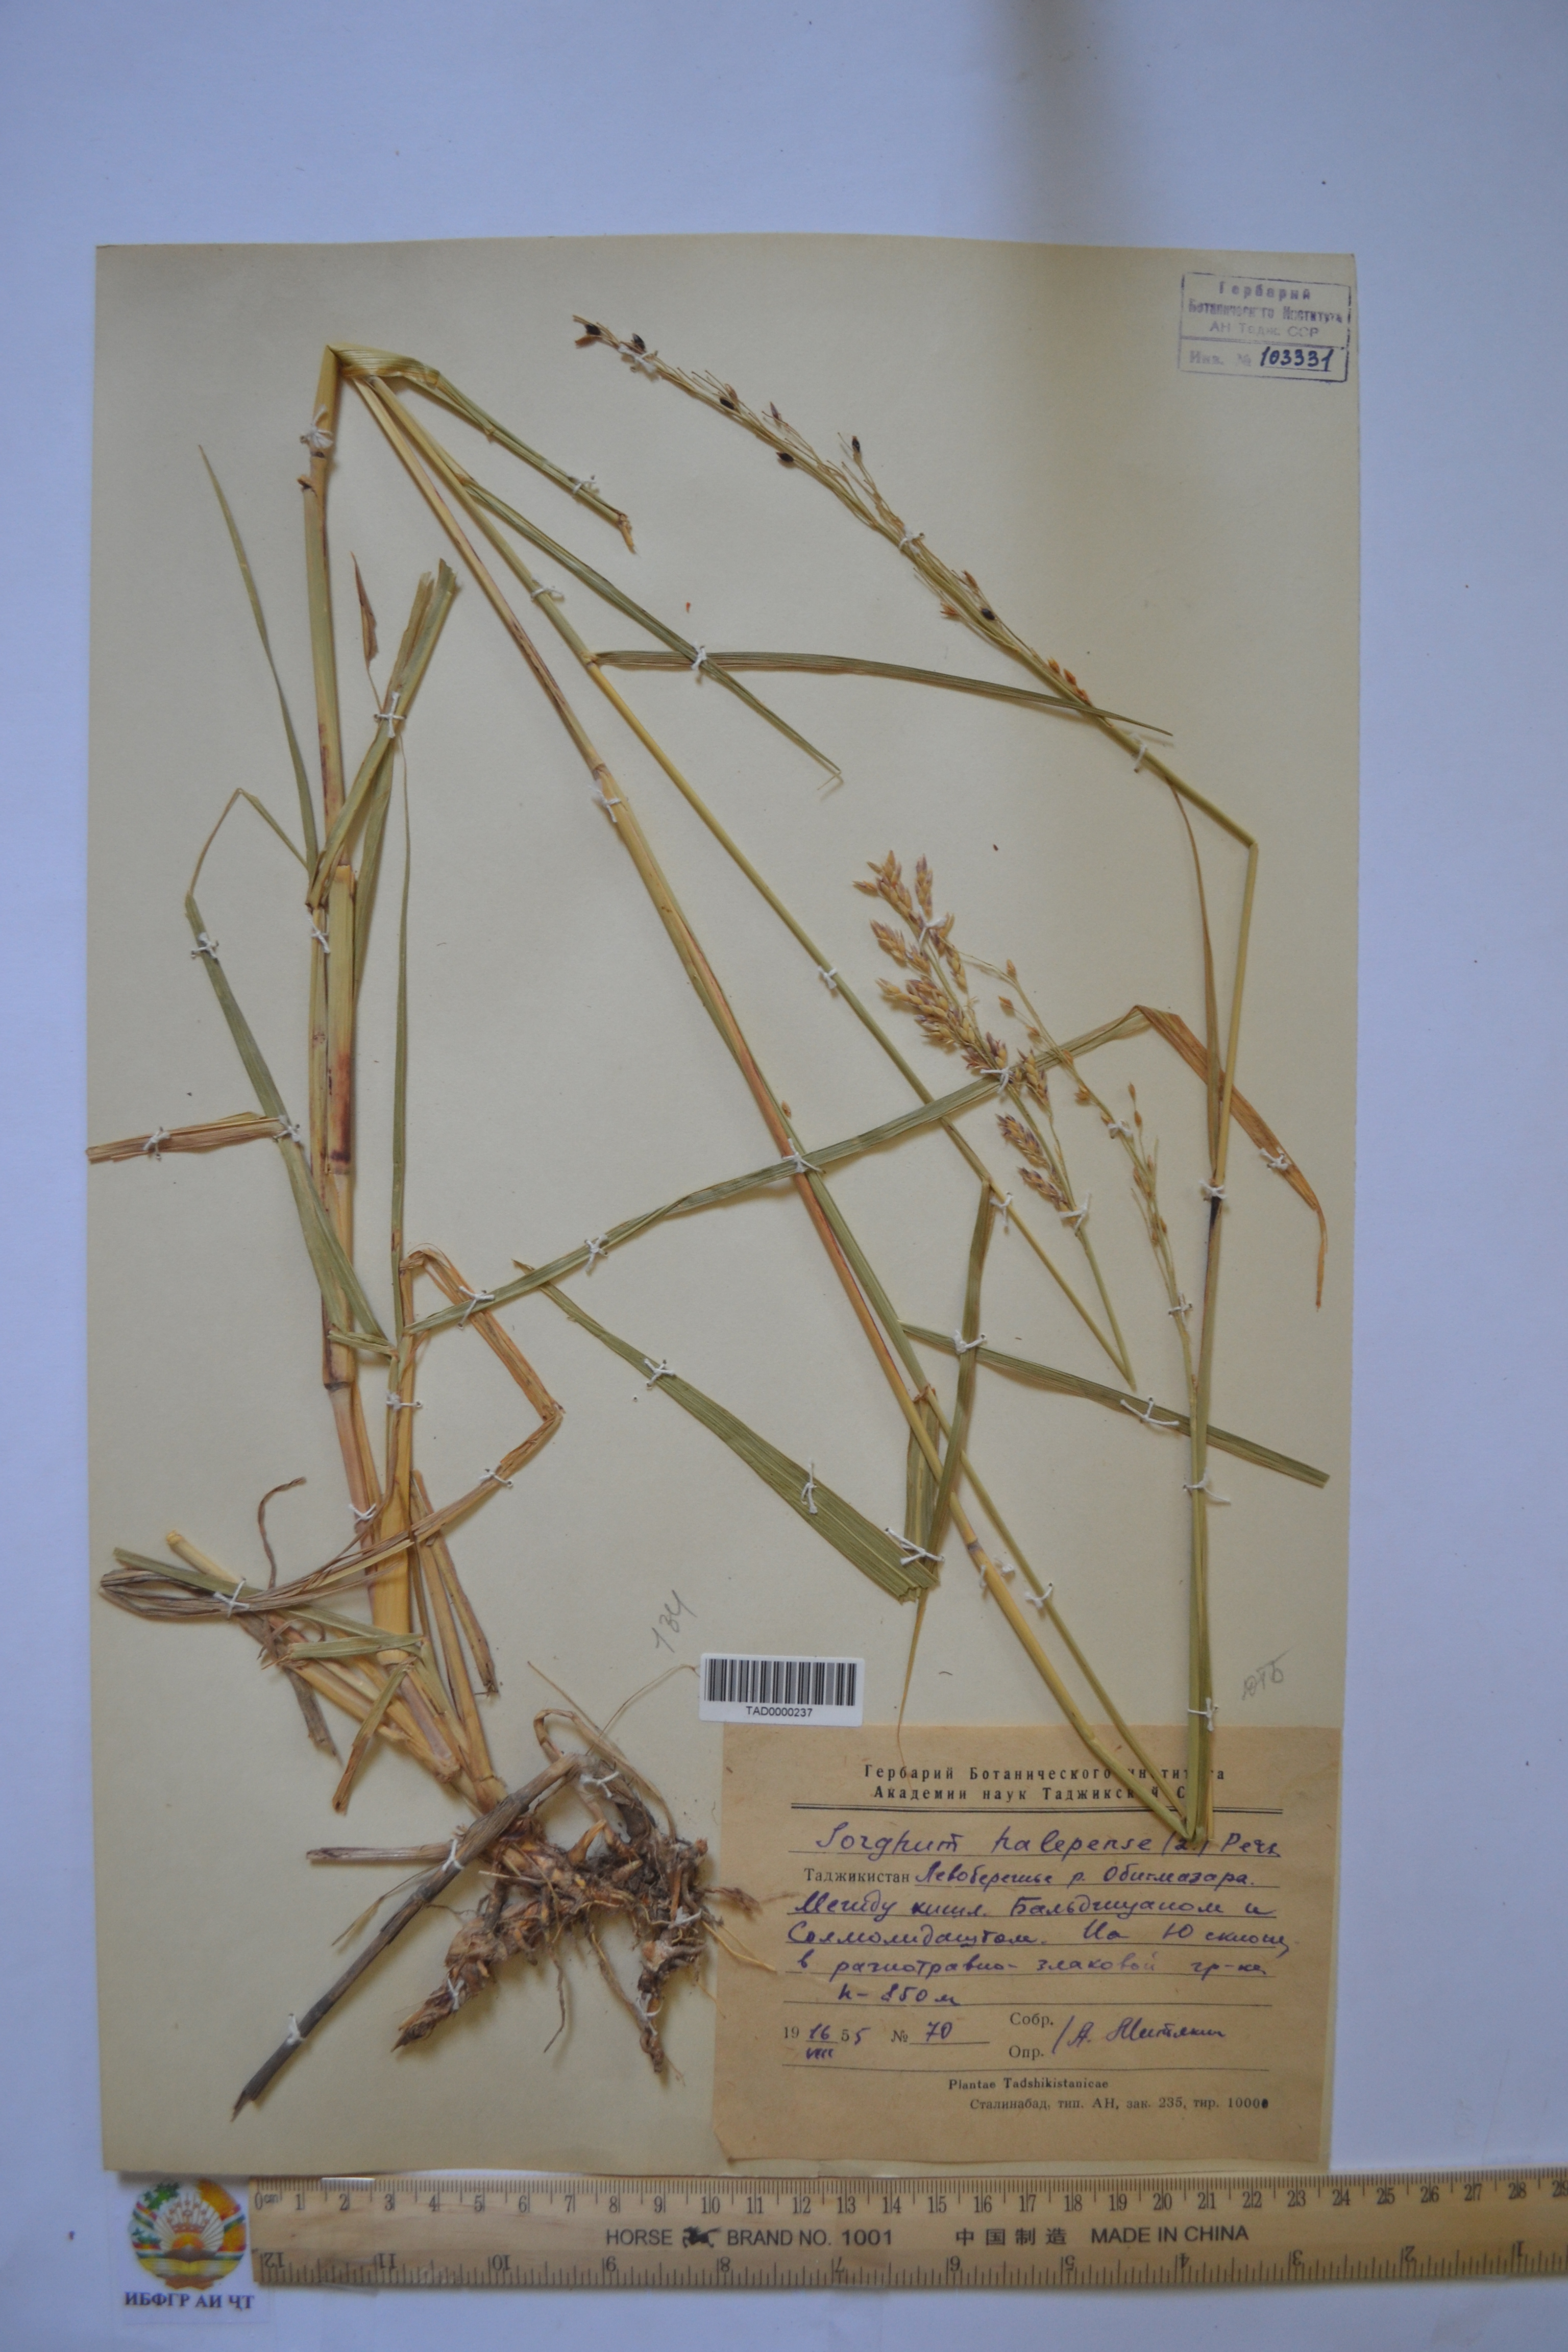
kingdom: Plantae
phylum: Tracheophyta
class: Liliopsida
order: Poales
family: Poaceae
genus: Sorghum
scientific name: Sorghum halepense
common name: Johnson-grass
